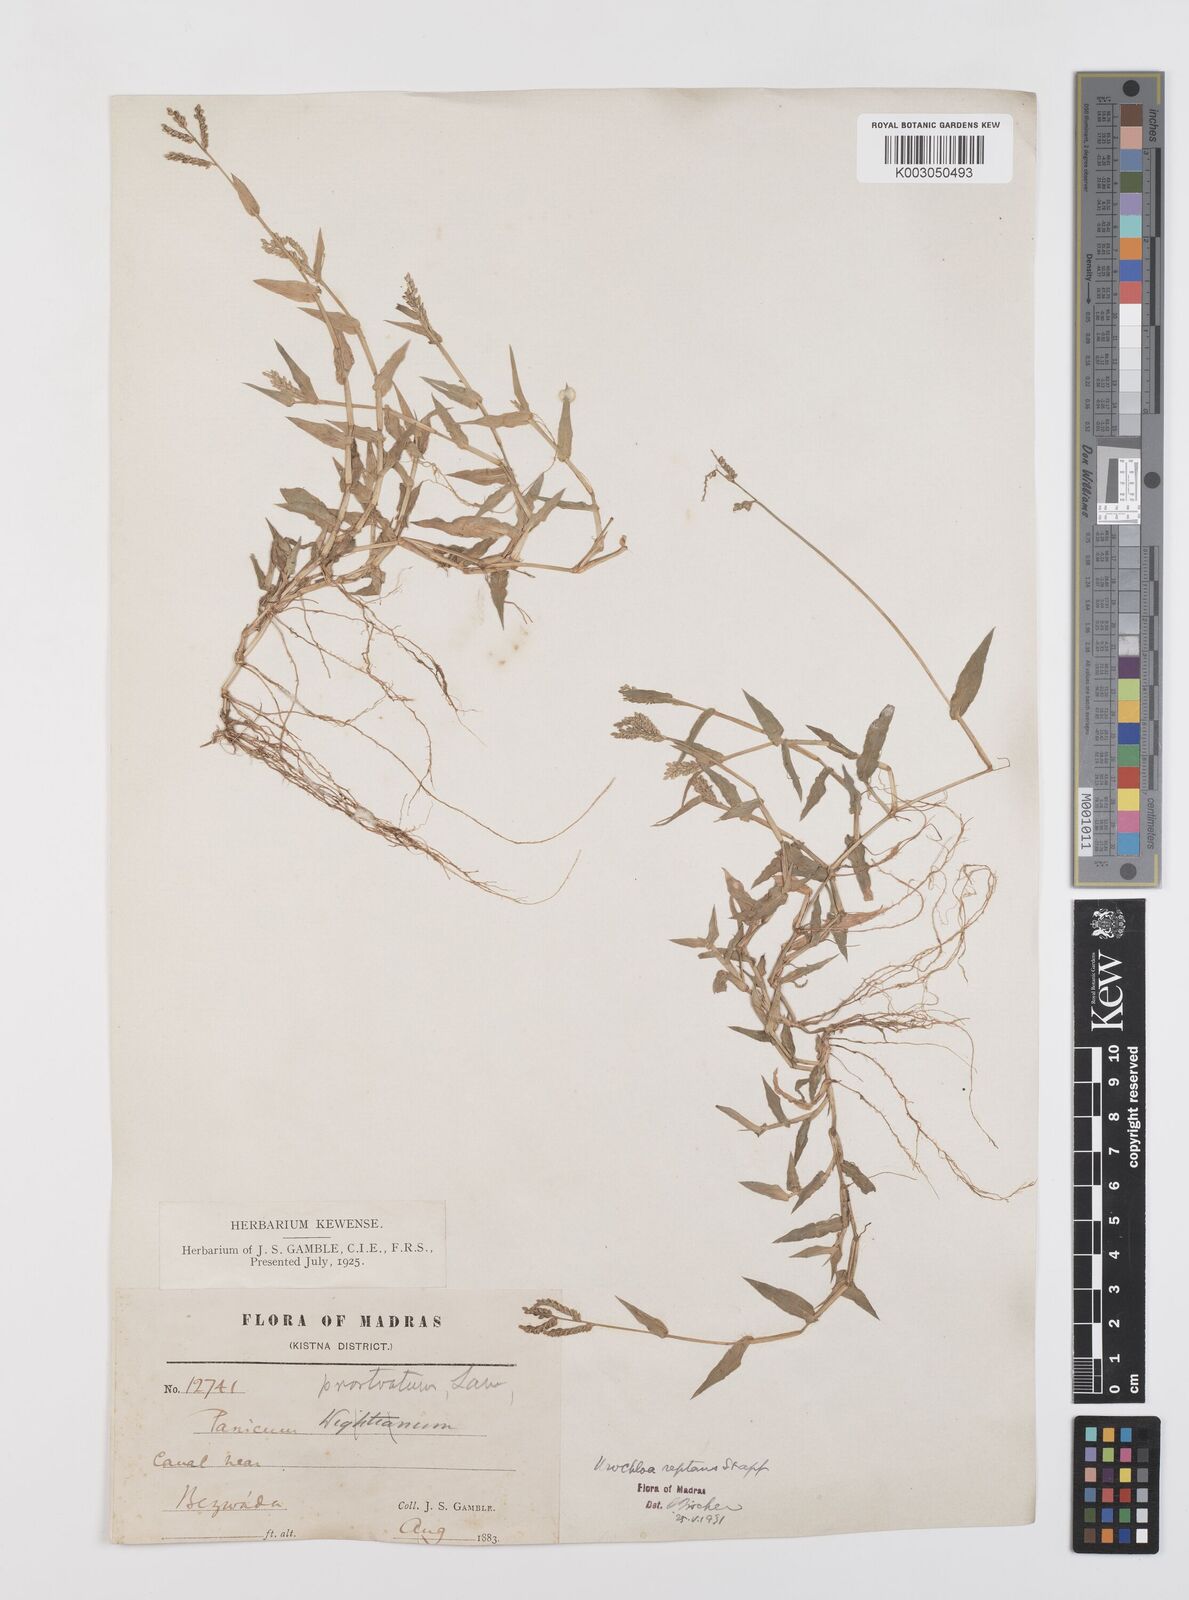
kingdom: Plantae
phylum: Tracheophyta
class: Liliopsida
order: Poales
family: Poaceae
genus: Urochloa
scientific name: Urochloa reptans
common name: Sprawling signalgrass
